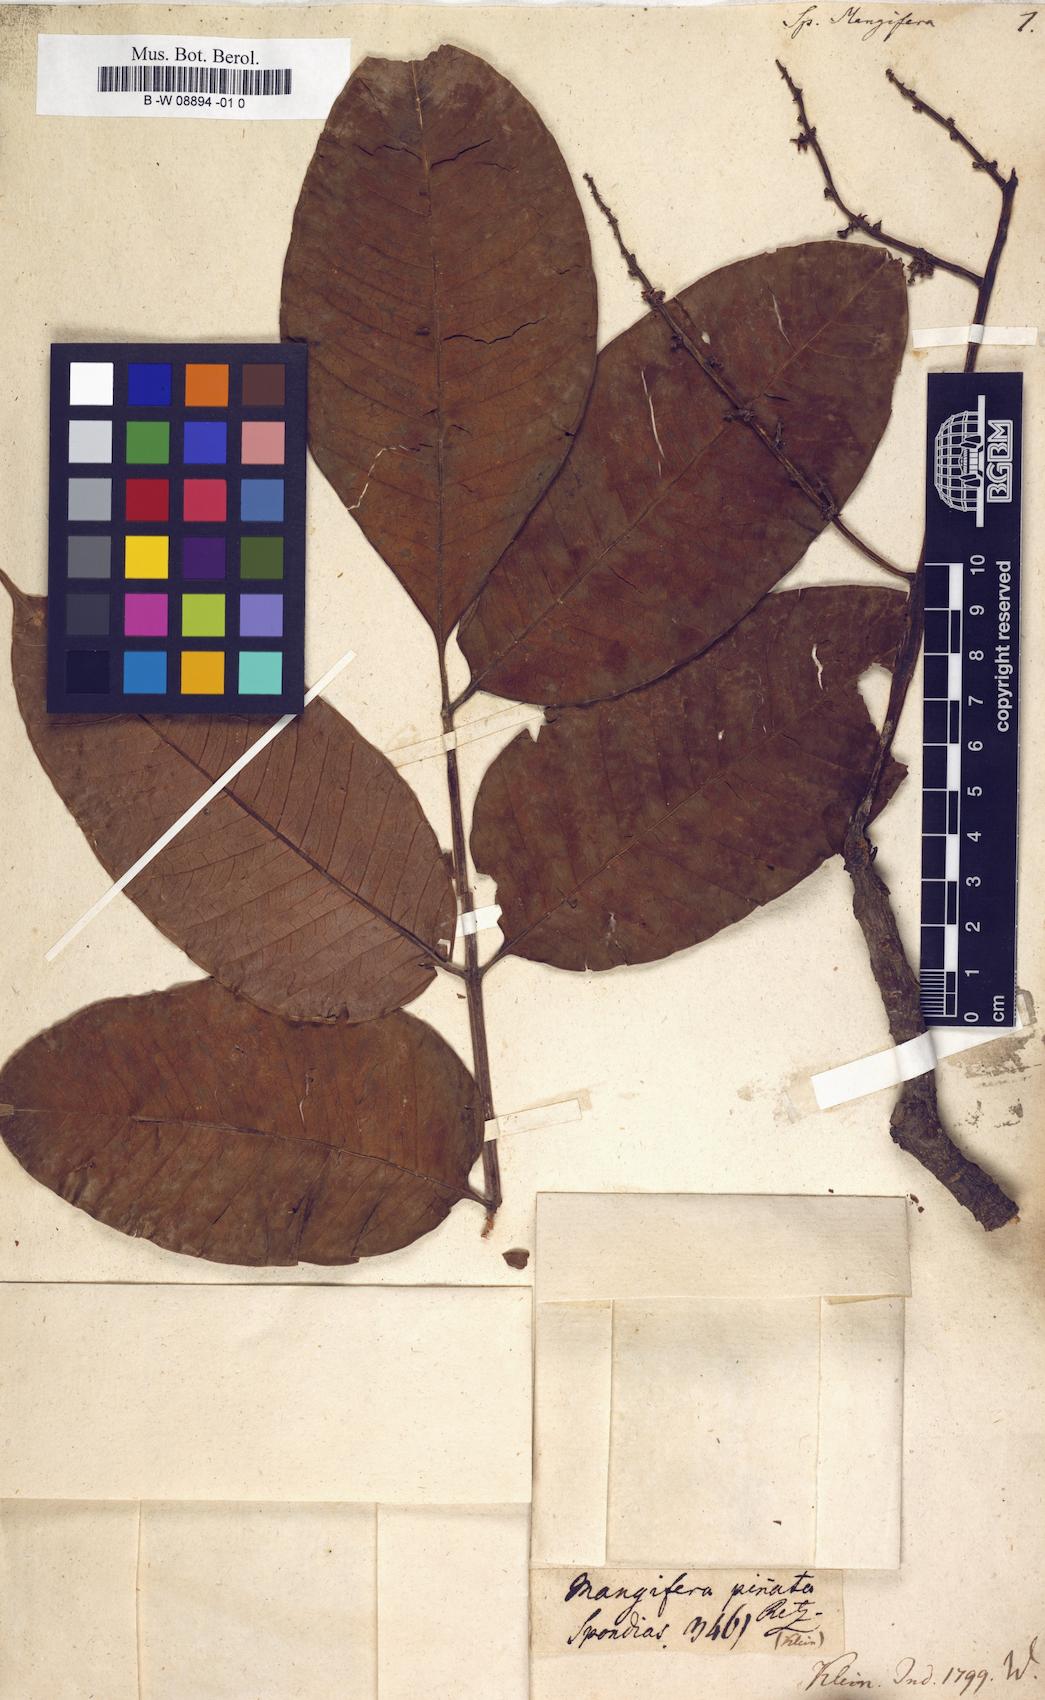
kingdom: Plantae
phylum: Tracheophyta
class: Magnoliopsida
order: Sapindales
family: Anacardiaceae
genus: Spondias
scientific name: Spondias pinnata
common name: Common hog-plum
